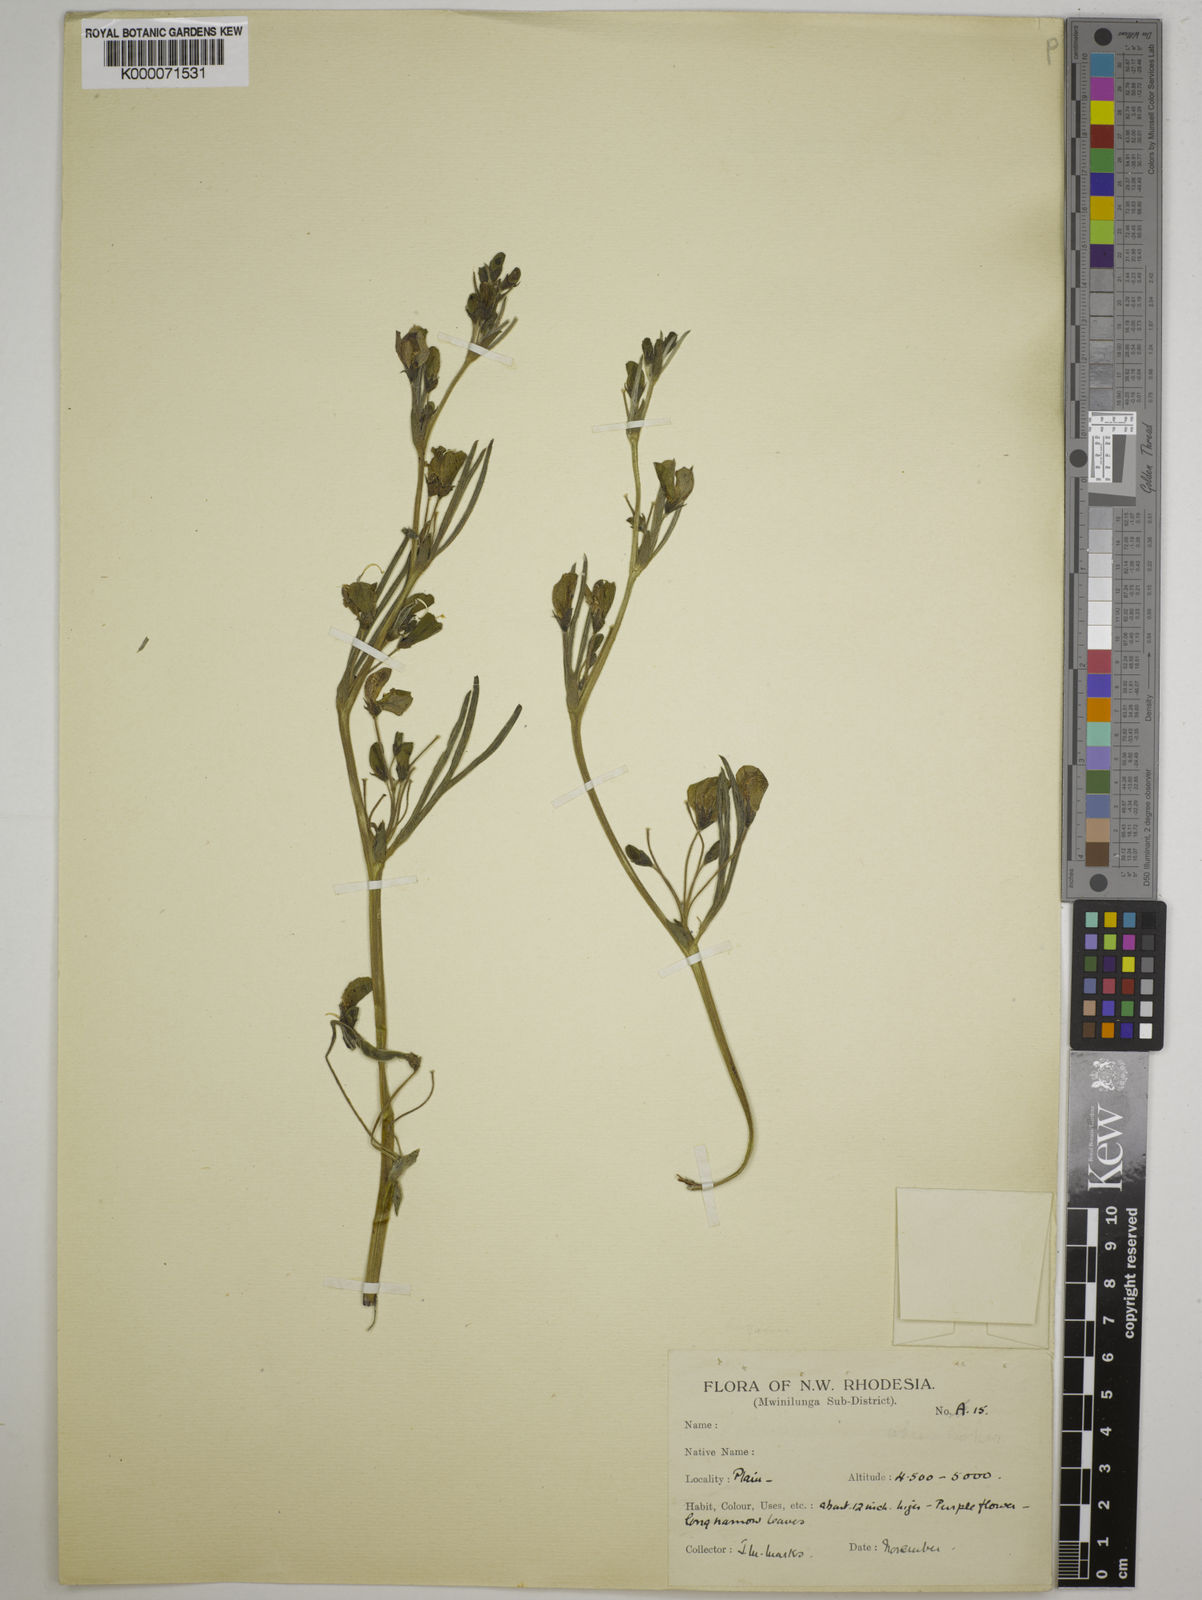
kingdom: Plantae
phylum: Tracheophyta
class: Magnoliopsida
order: Fabales
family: Fabaceae
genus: Dolichos
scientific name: Dolichos trinervatus
